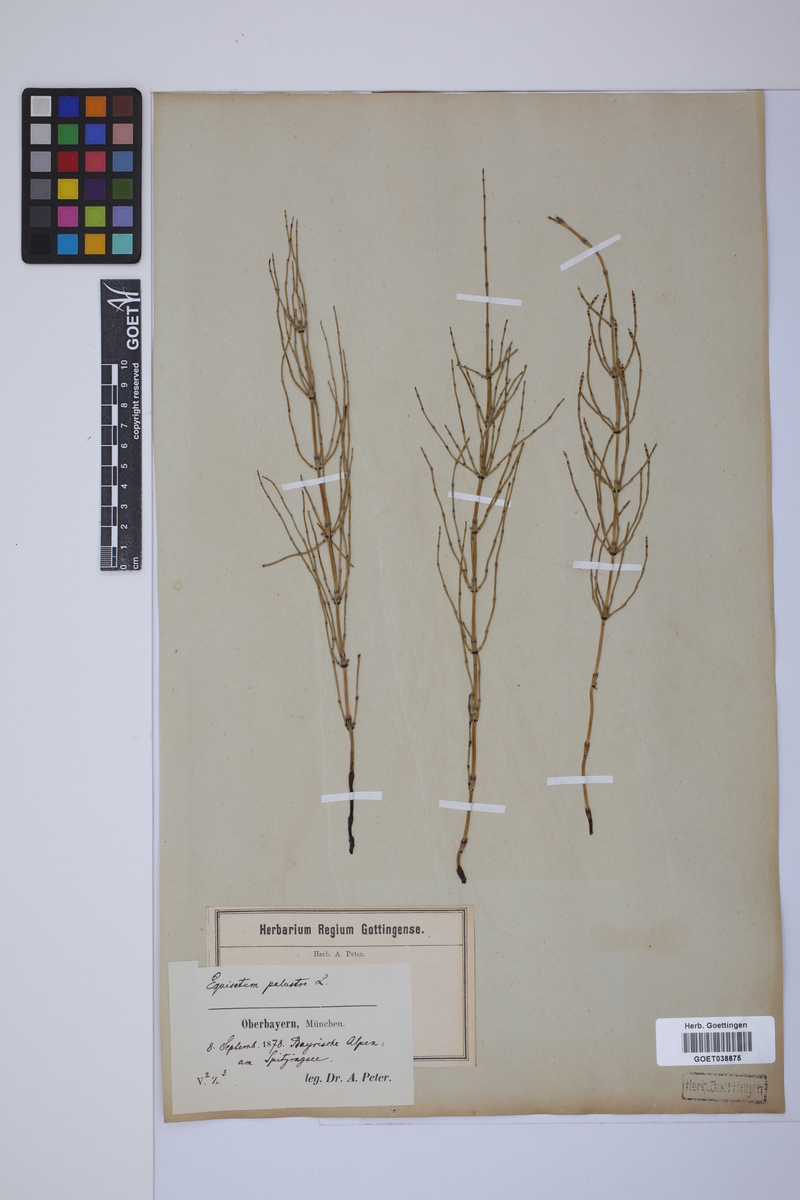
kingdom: Plantae
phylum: Tracheophyta
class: Polypodiopsida
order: Equisetales
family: Equisetaceae
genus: Equisetum
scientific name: Equisetum palustre
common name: Marsh horsetail
